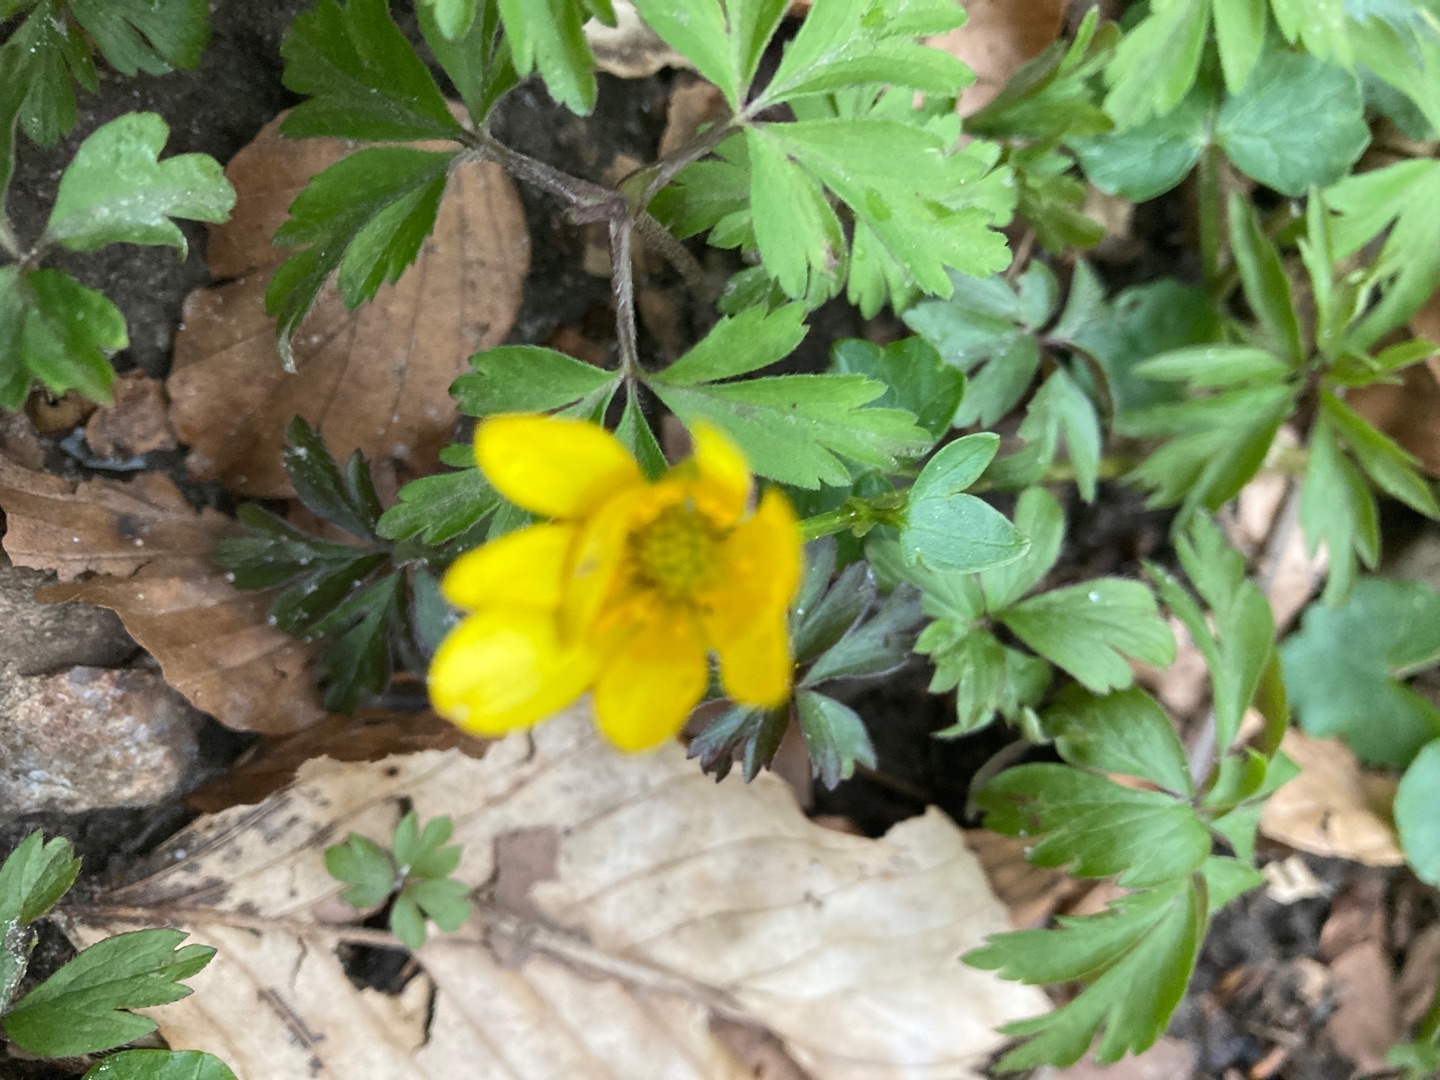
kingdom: Plantae
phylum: Tracheophyta
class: Magnoliopsida
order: Ranunculales
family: Ranunculaceae
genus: Anemone
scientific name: Anemone ranunculoides
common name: Gul anemone
